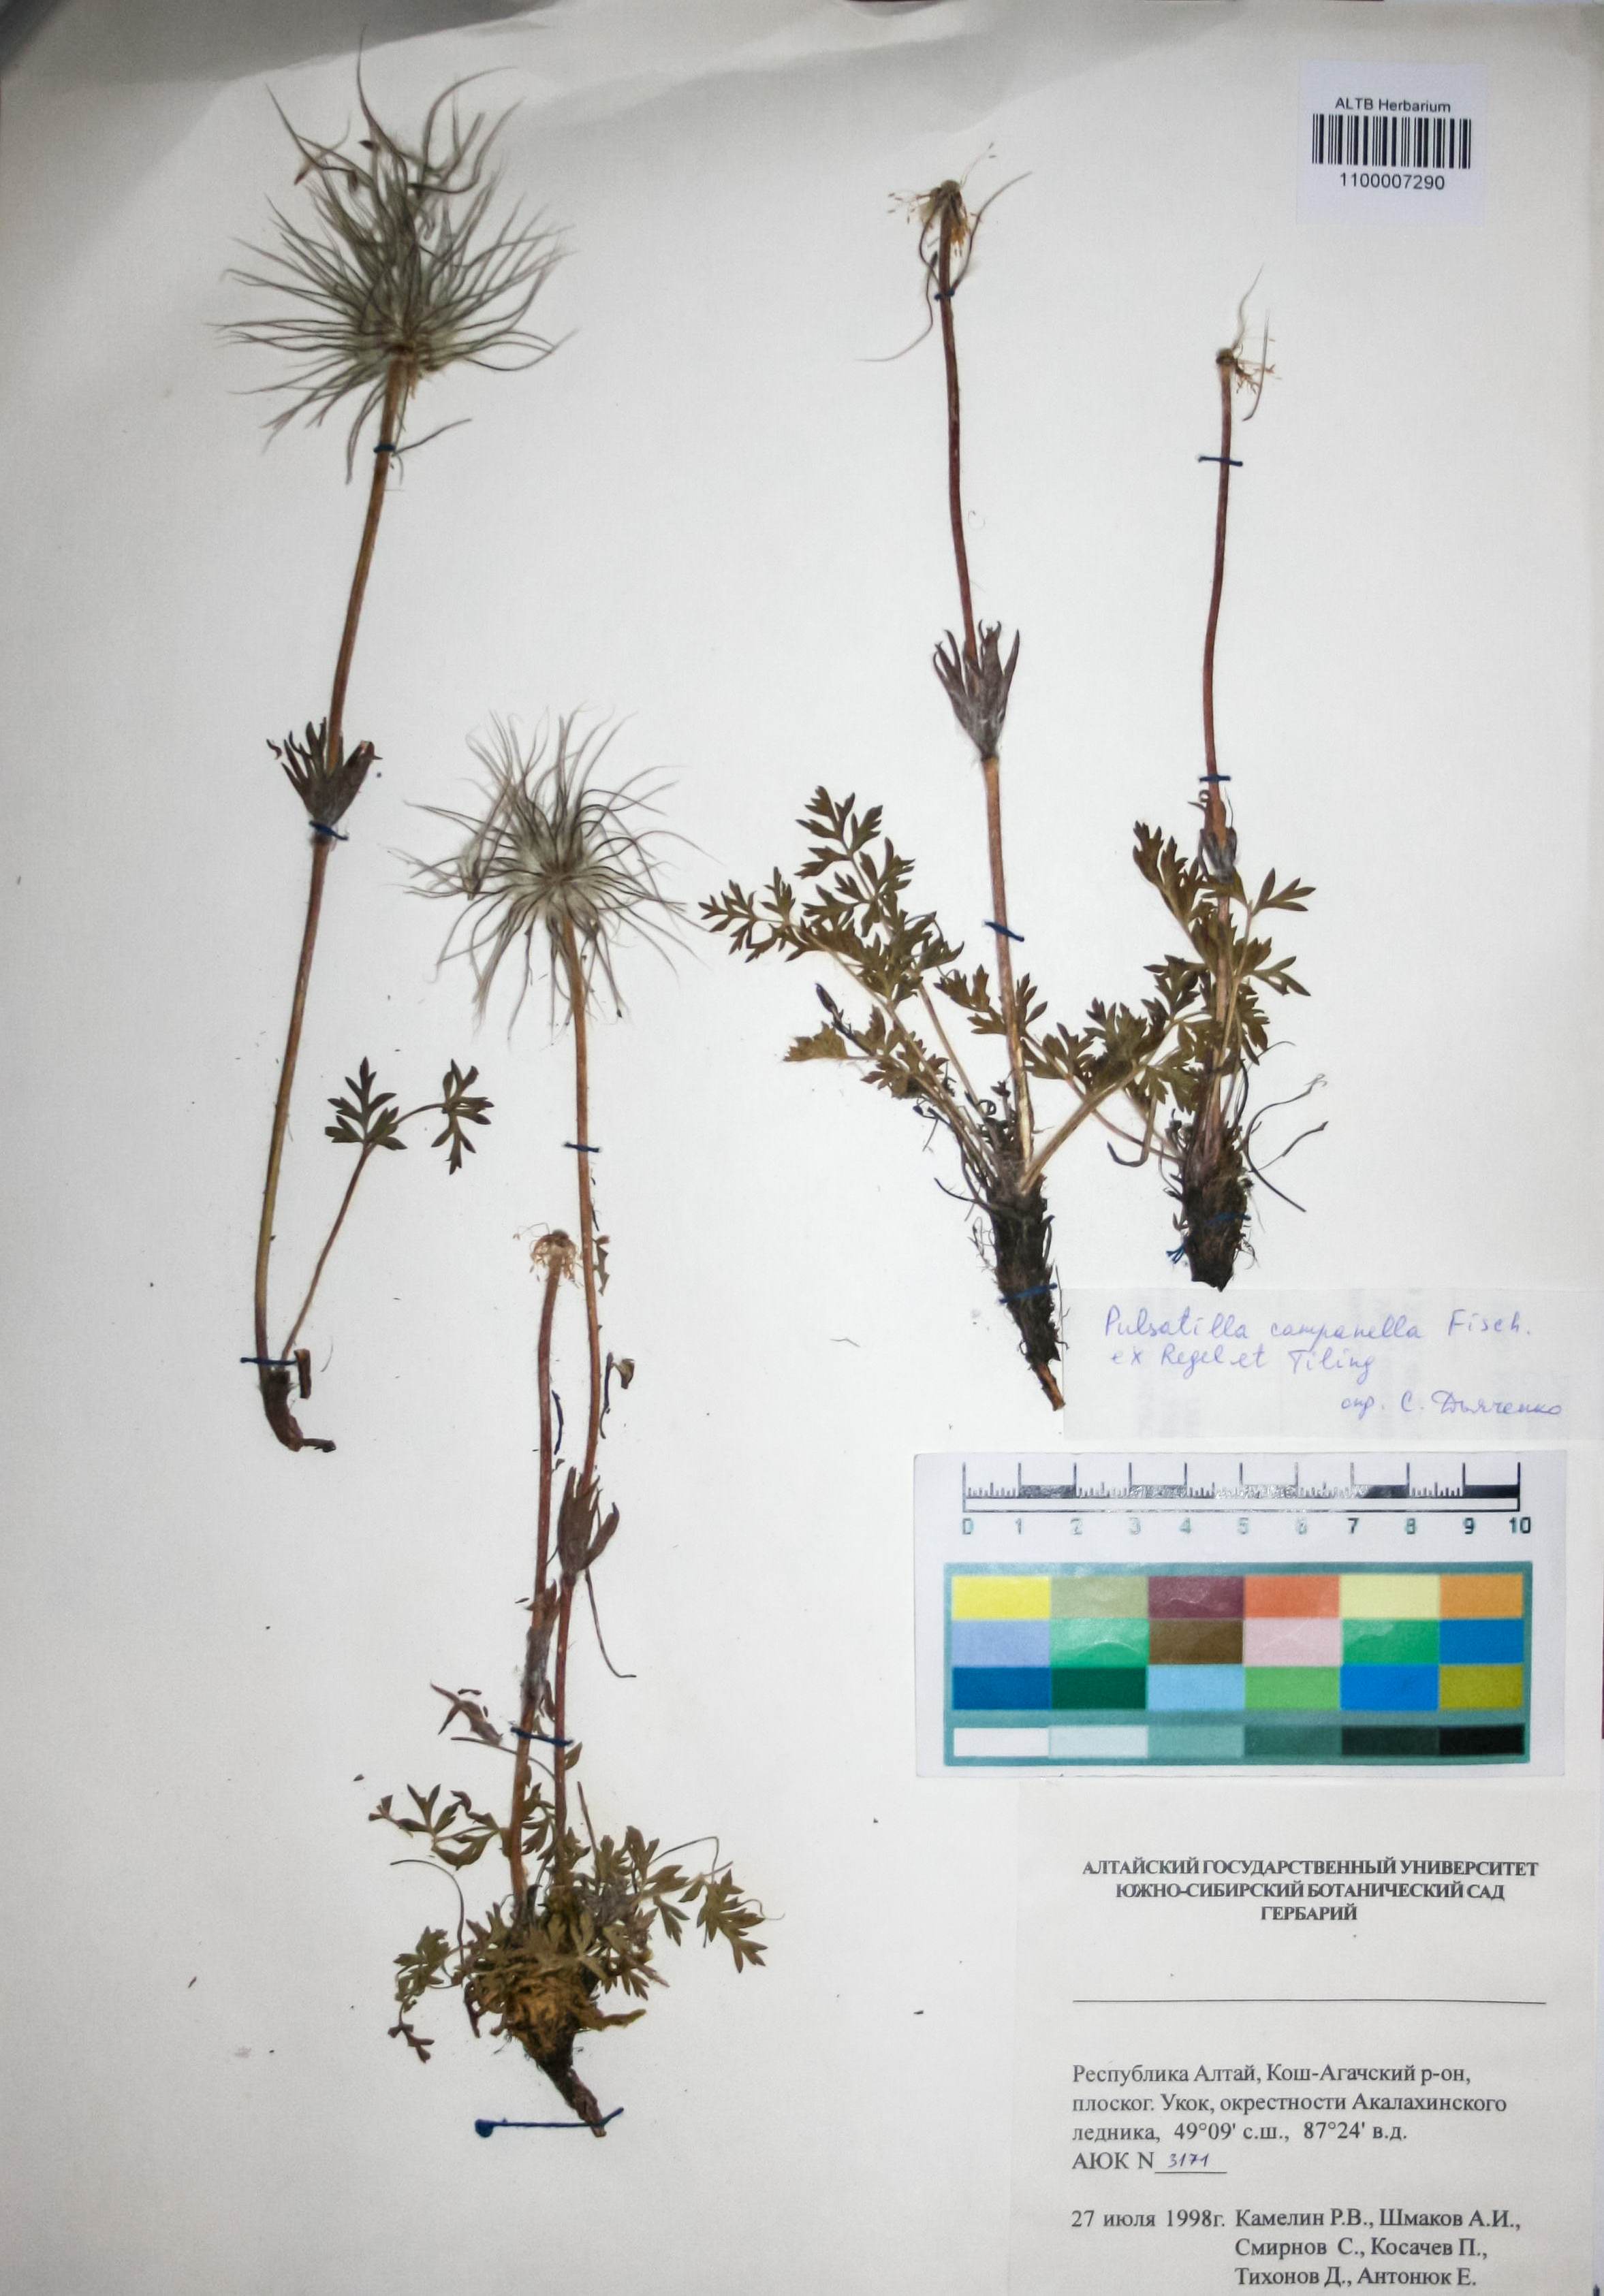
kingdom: Plantae
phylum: Tracheophyta
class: Magnoliopsida
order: Ranunculales
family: Ranunculaceae
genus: Pulsatilla
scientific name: Pulsatilla campanella
